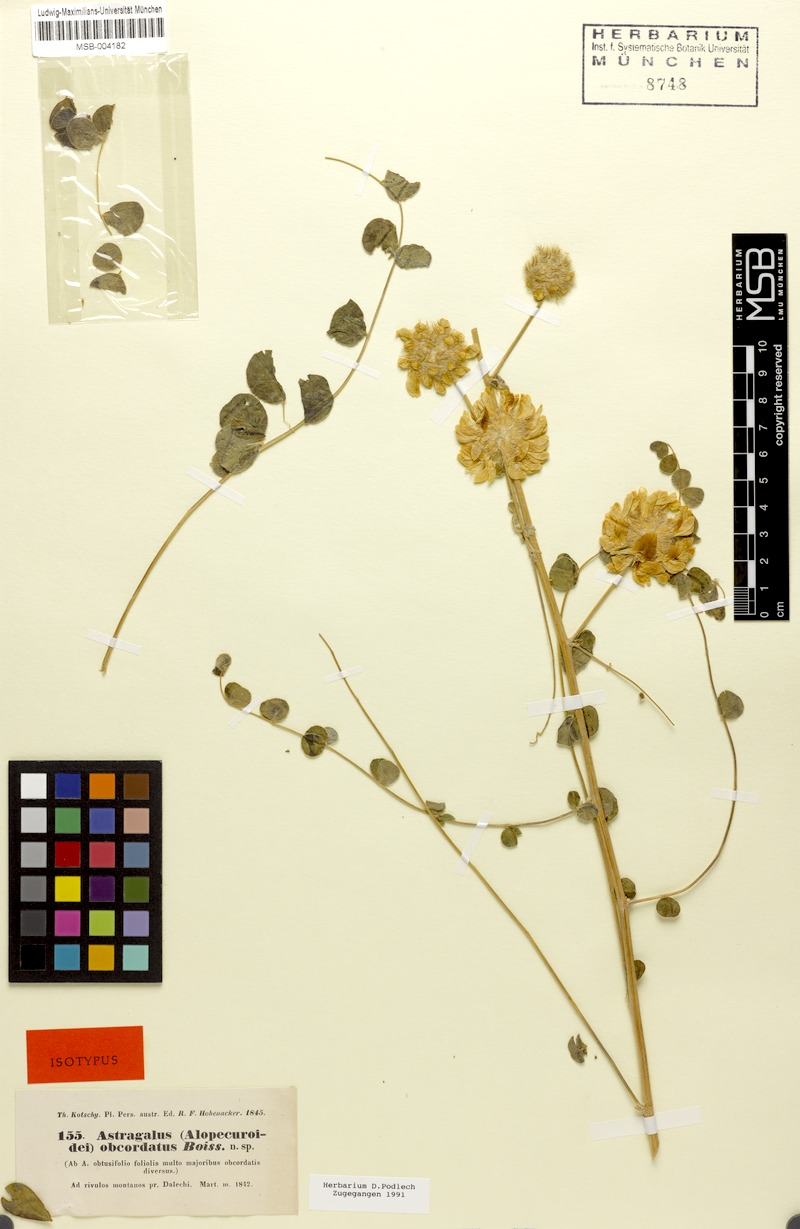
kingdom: Plantae
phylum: Tracheophyta
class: Magnoliopsida
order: Fabales
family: Fabaceae
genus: Astragalus
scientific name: Astragalus obtusifolius
